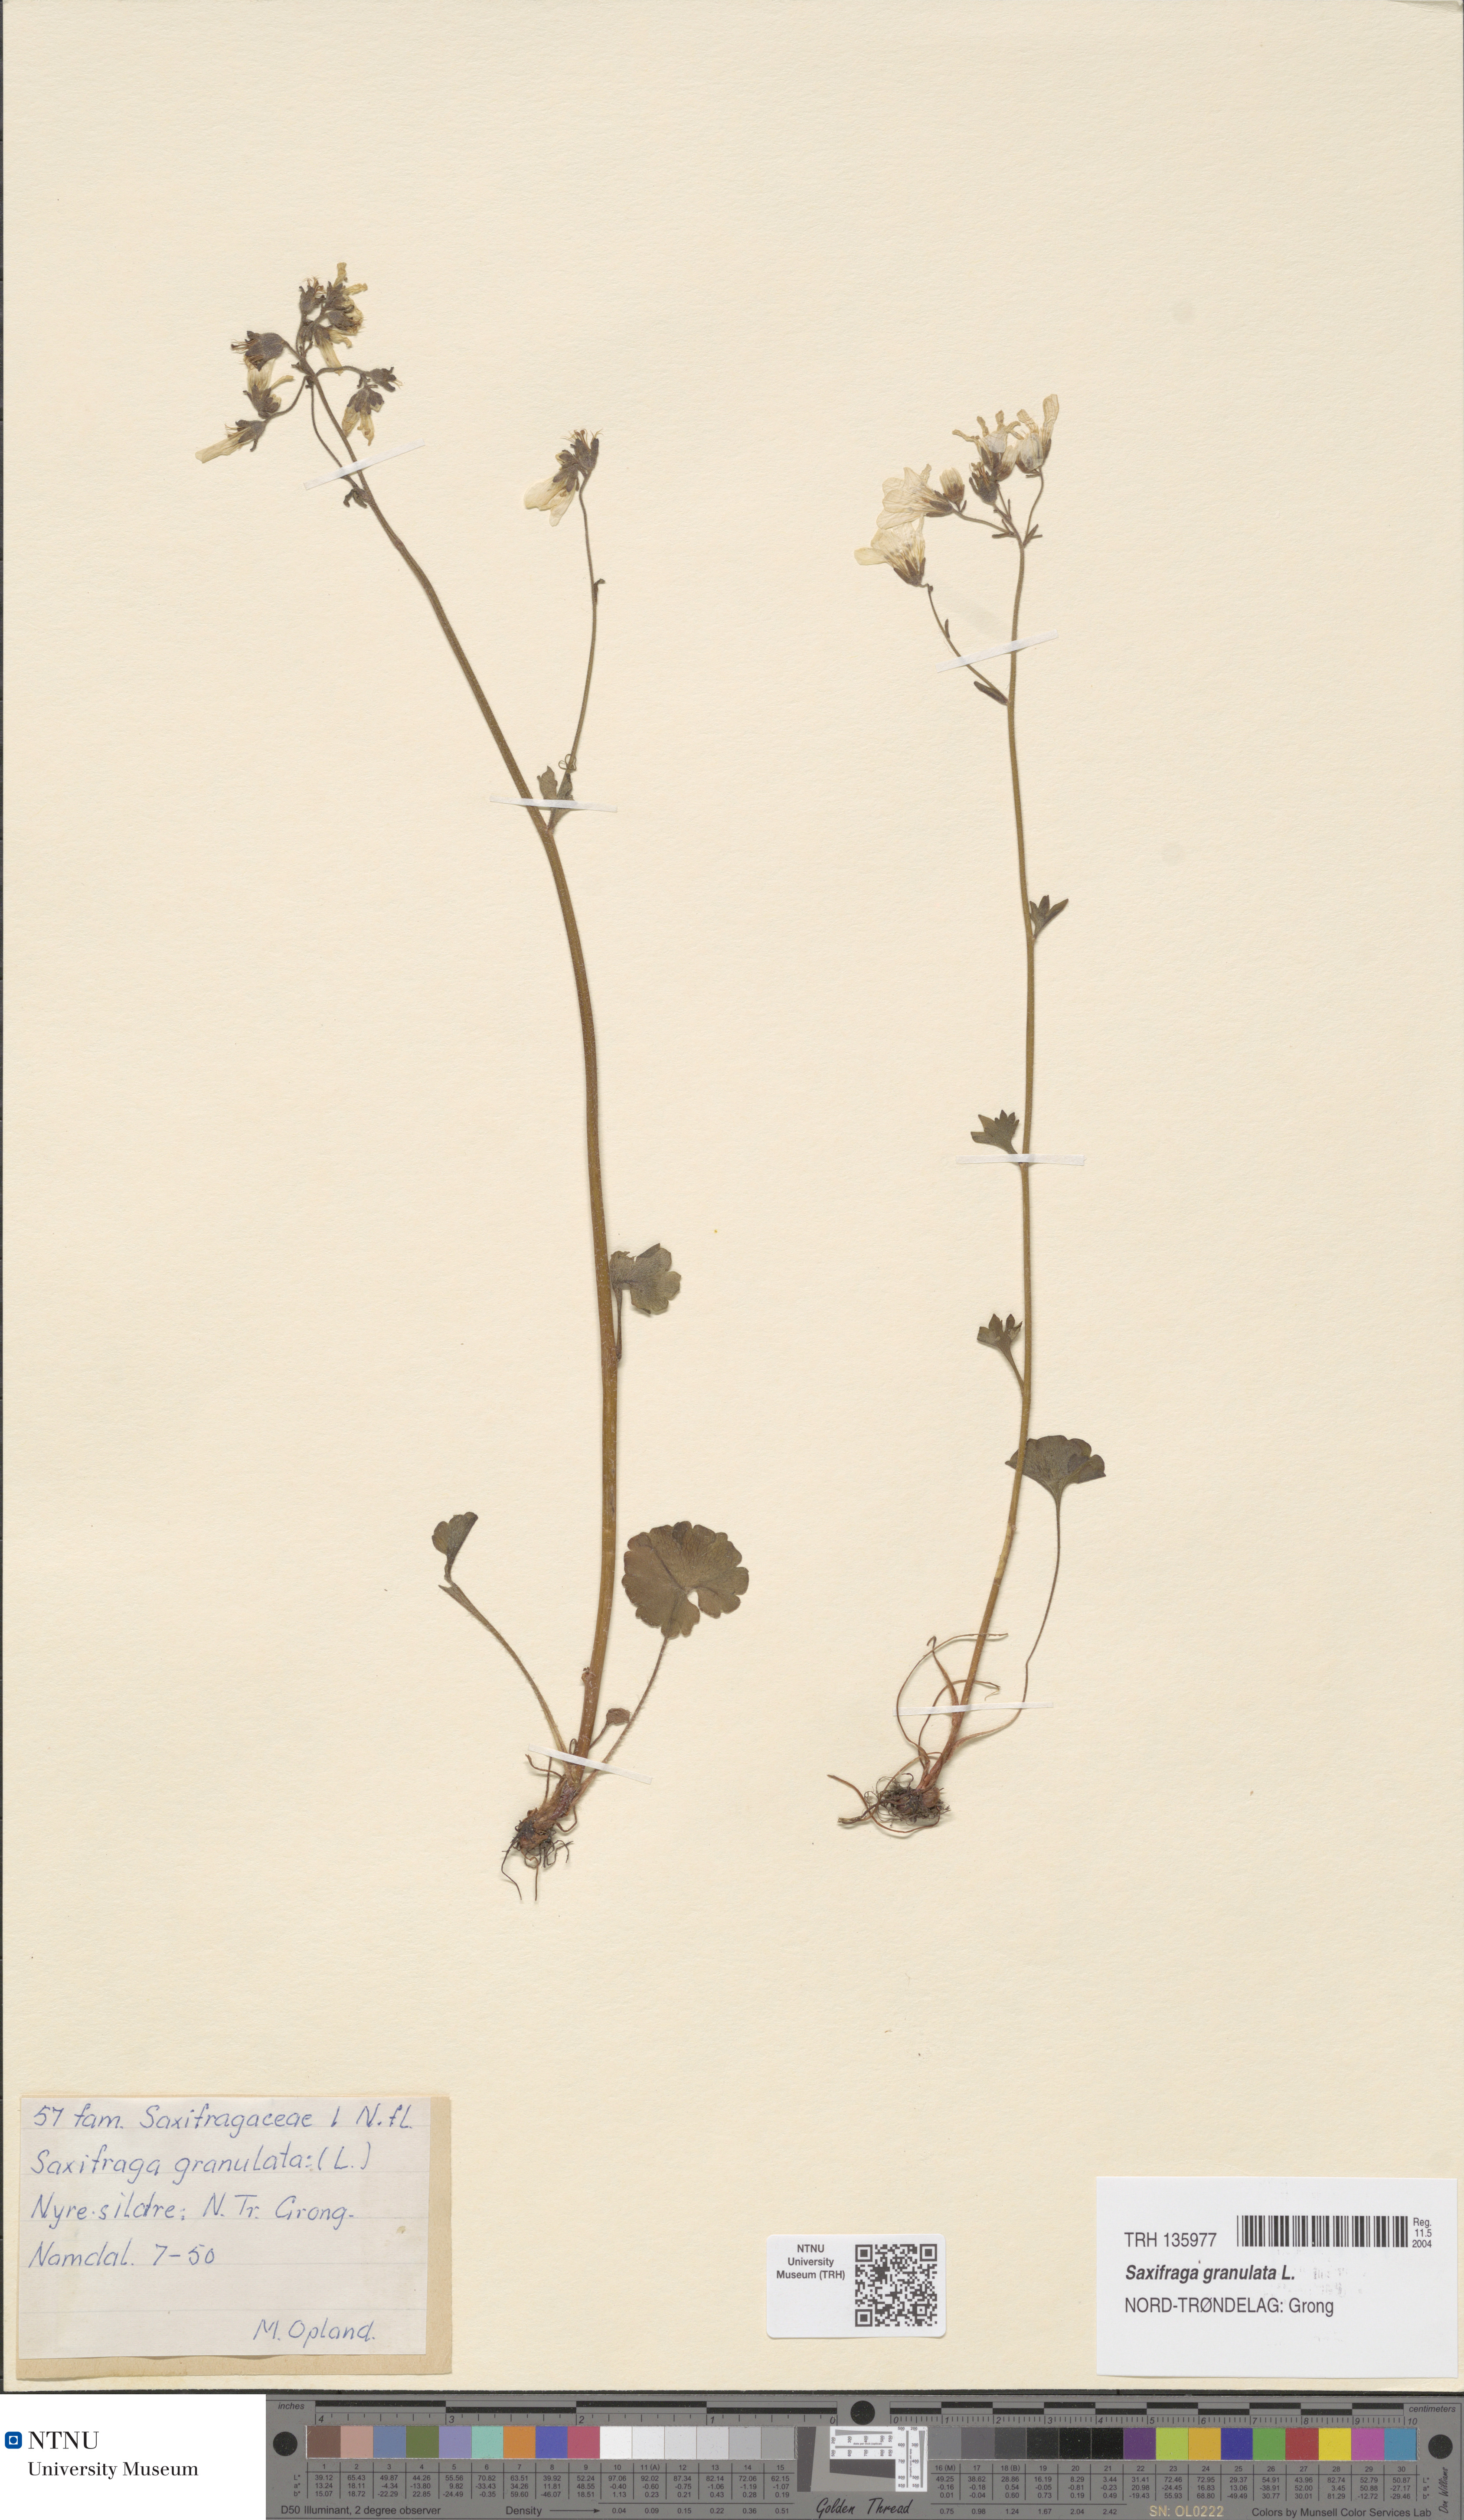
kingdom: Plantae
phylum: Tracheophyta
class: Magnoliopsida
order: Saxifragales
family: Saxifragaceae
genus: Saxifraga
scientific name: Saxifraga granulata
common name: Meadow saxifrage
